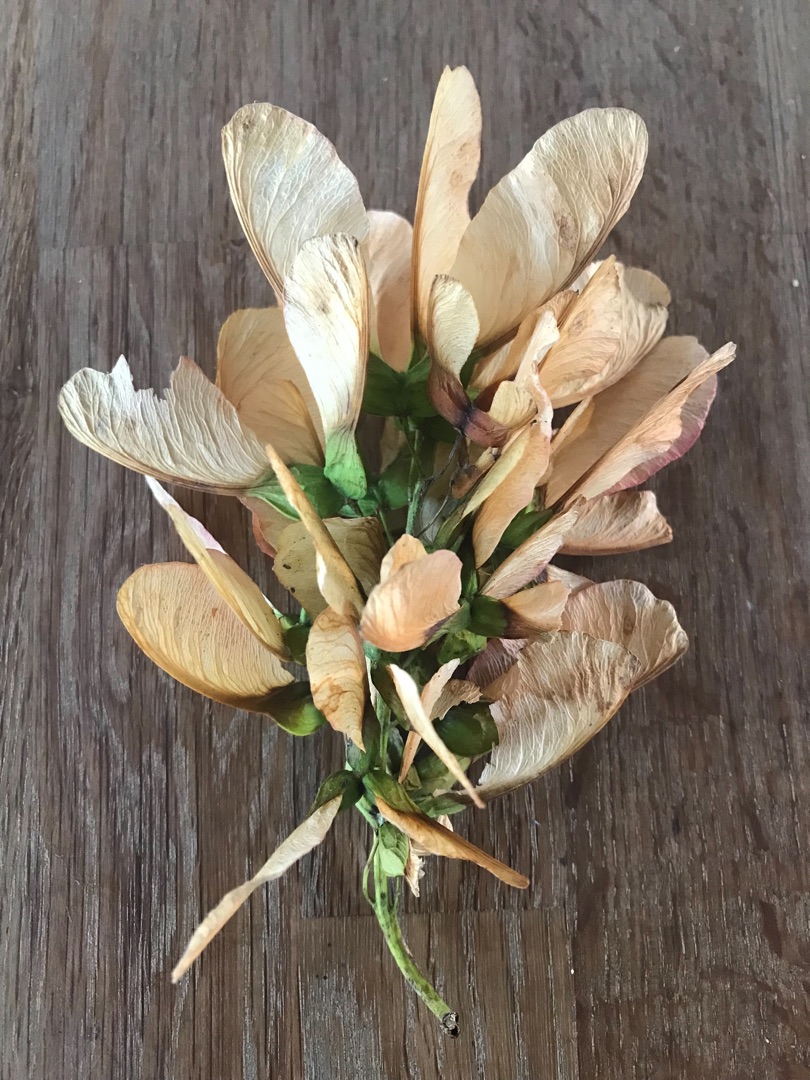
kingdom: Plantae
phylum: Tracheophyta
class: Magnoliopsida
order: Sapindales
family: Sapindaceae
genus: Acer
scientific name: Acer pseudoplatanus
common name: Ahorn
